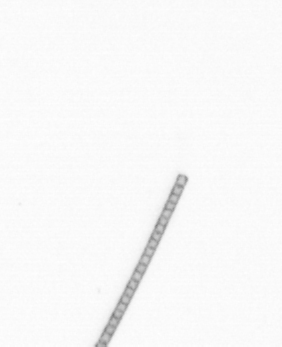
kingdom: Chromista
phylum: Ochrophyta
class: Bacillariophyceae
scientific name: Bacillariophyceae
